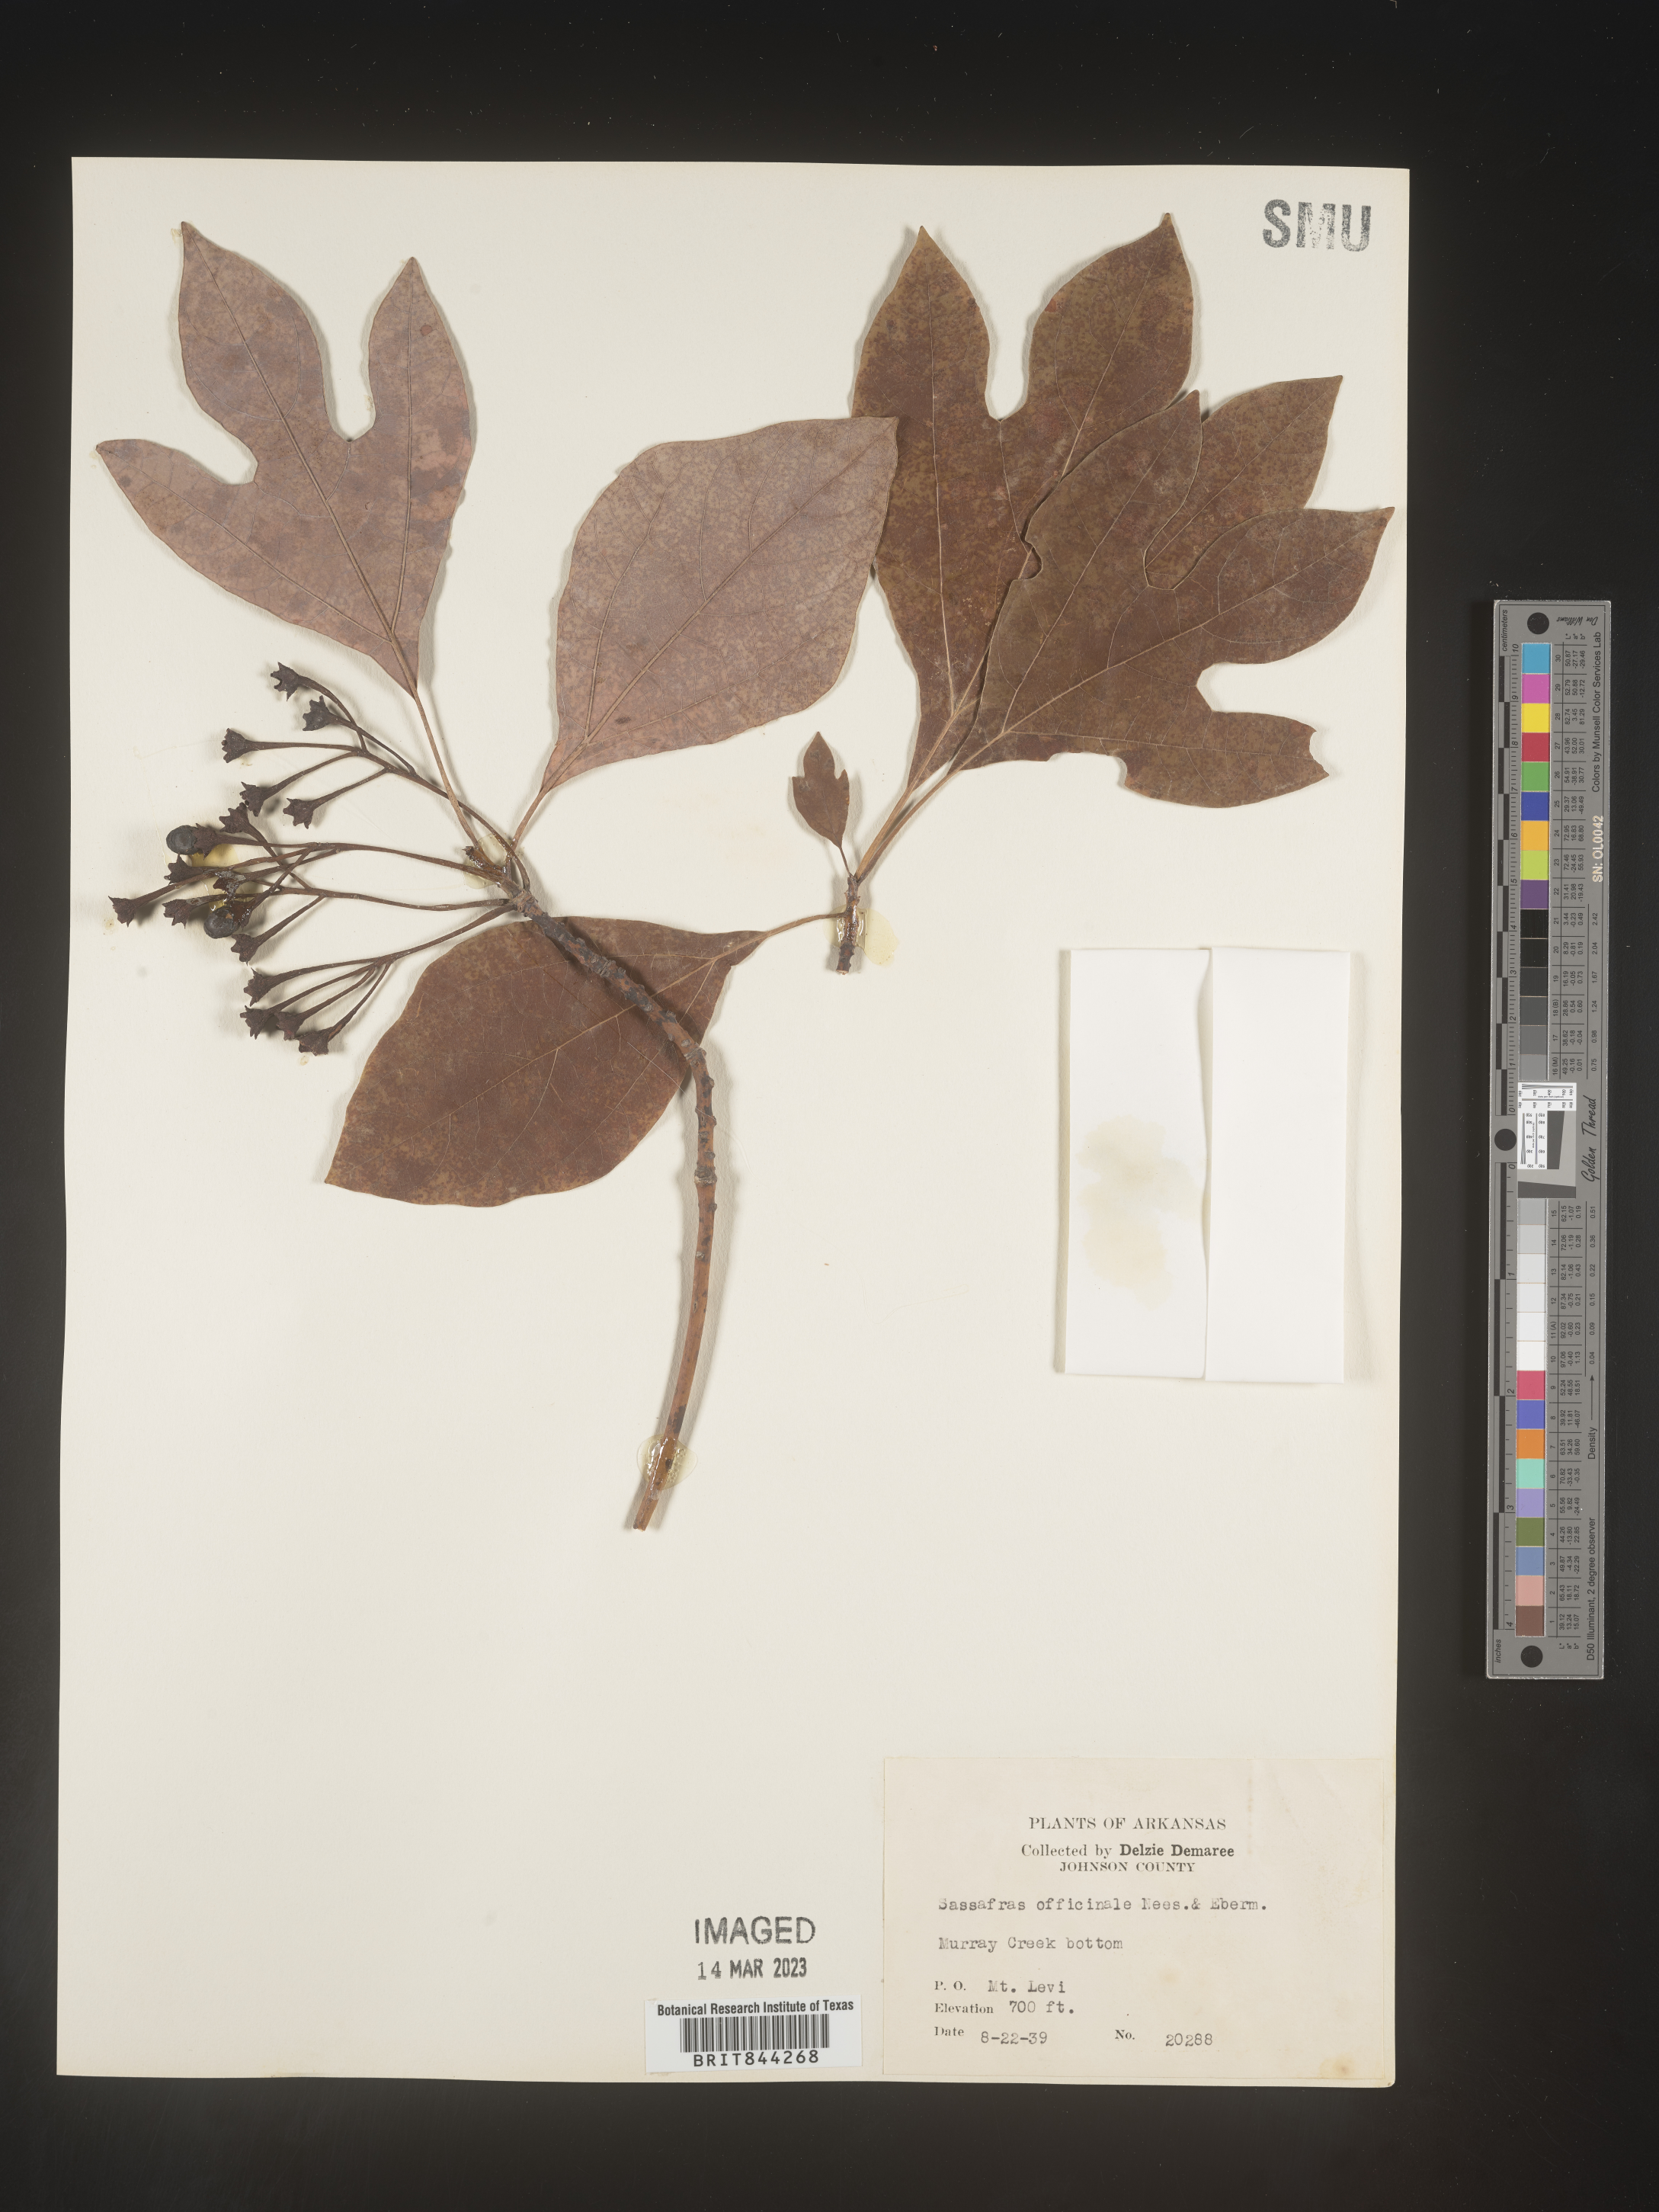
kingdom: Plantae
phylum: Tracheophyta
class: Magnoliopsida
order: Laurales
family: Lauraceae
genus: Sassafras
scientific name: Sassafras albidum
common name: Sassafras
